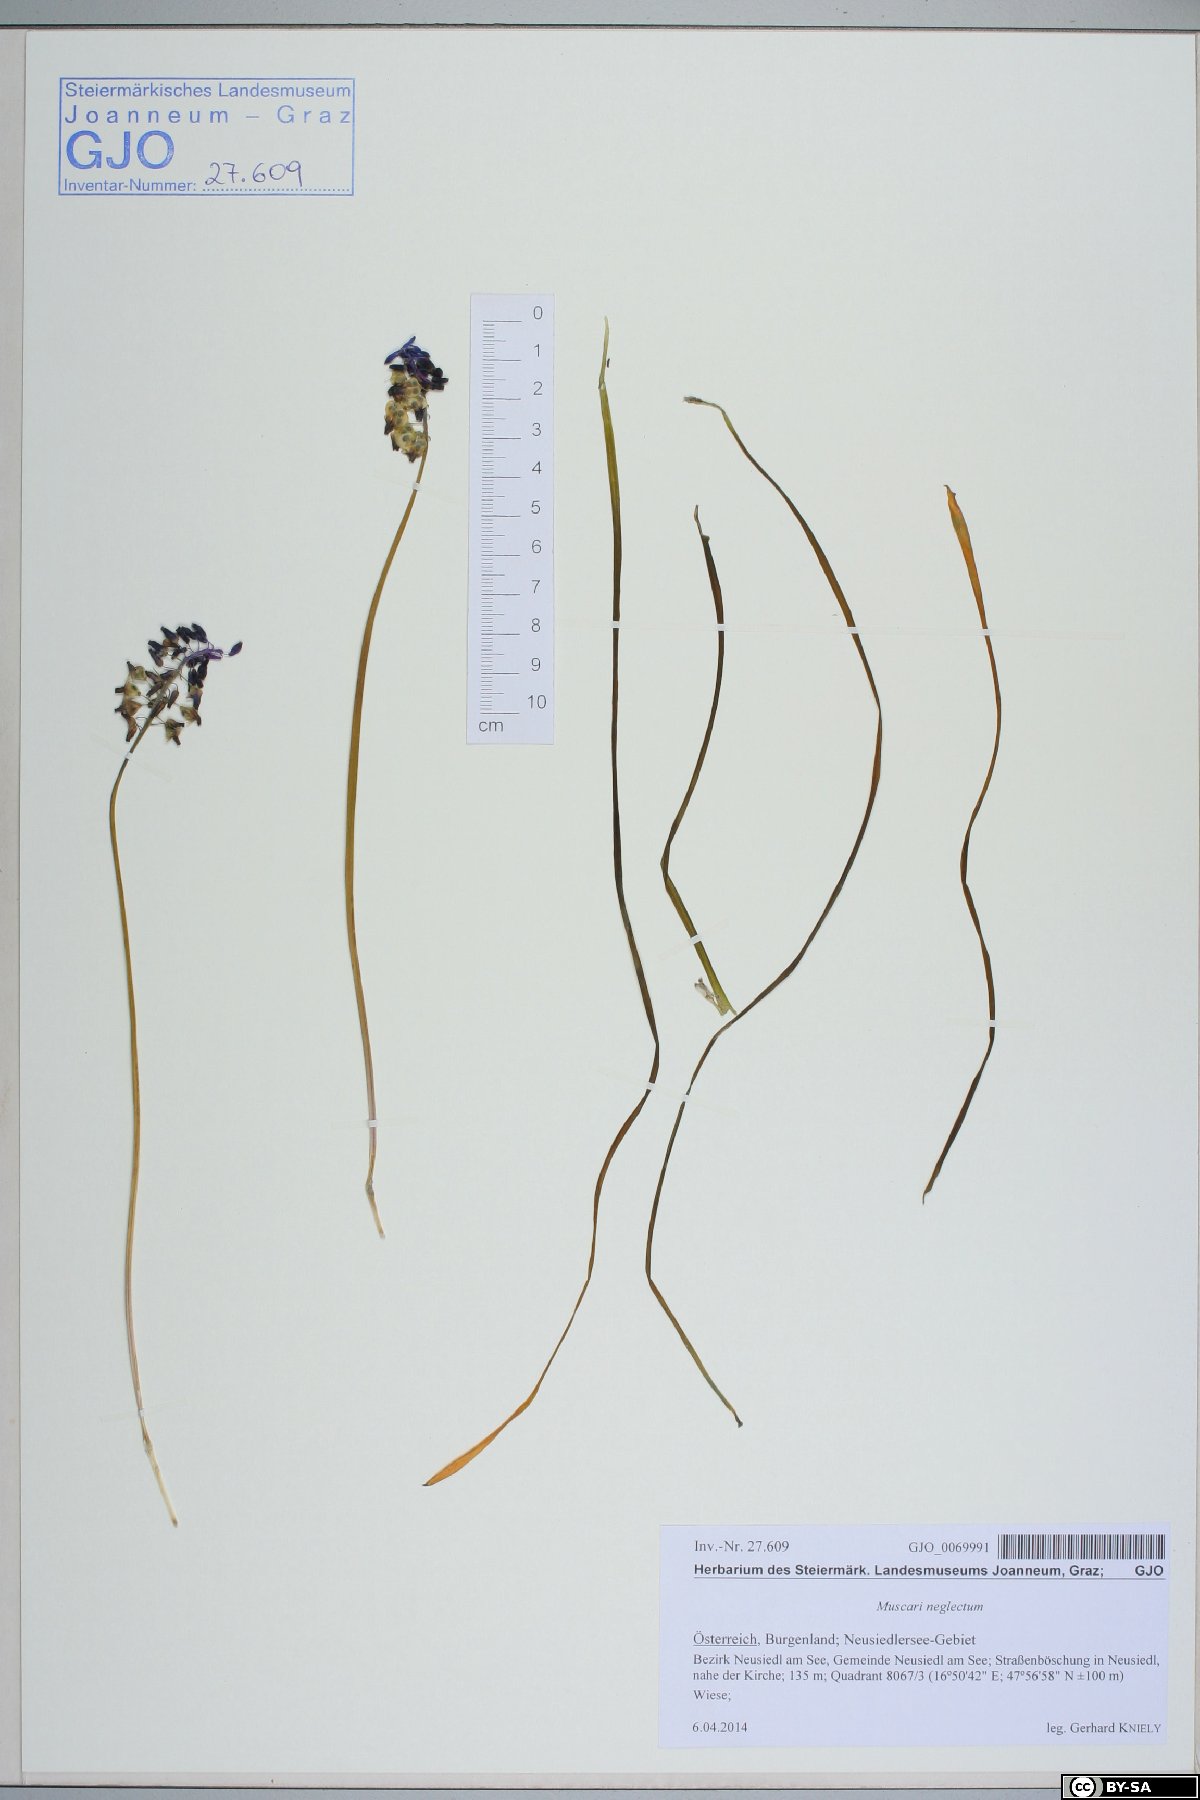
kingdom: Plantae
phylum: Tracheophyta
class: Liliopsida
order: Asparagales
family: Asparagaceae
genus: Muscari
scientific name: Muscari neglectum
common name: Grape-hyacinth
